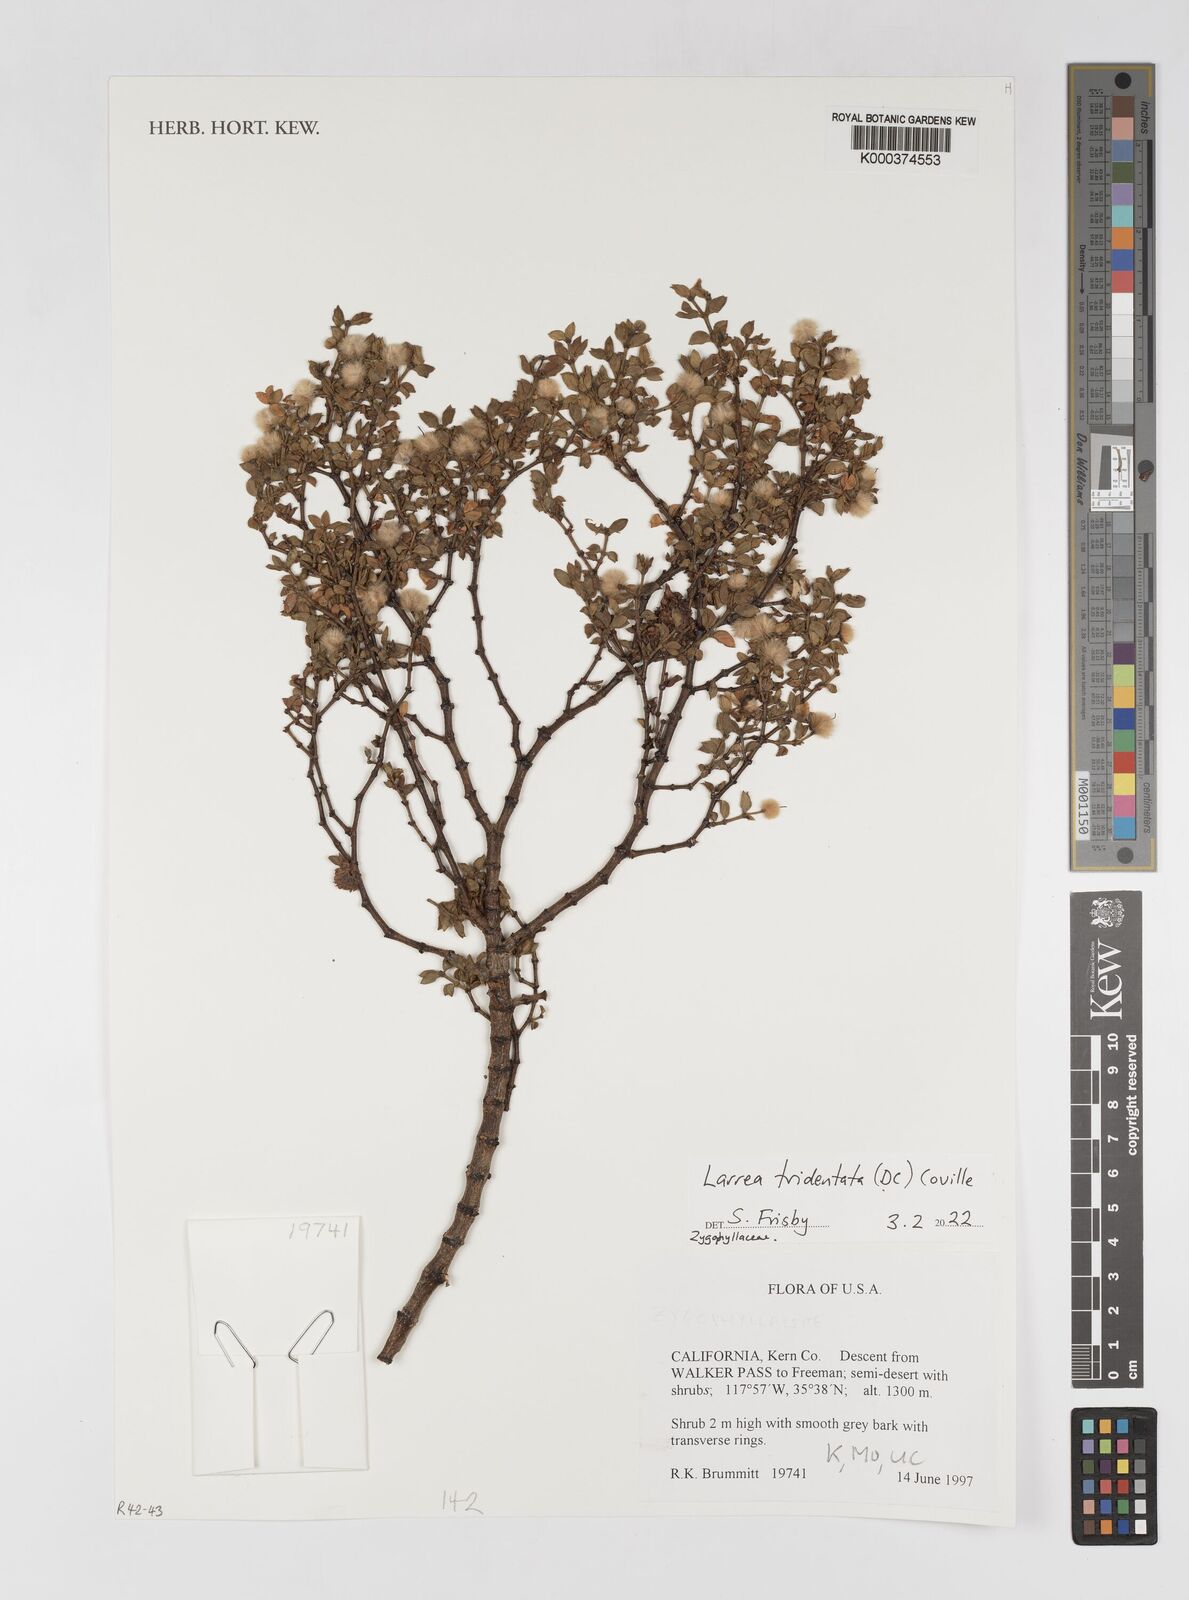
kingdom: Plantae
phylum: Tracheophyta
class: Magnoliopsida
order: Zygophyllales
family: Zygophyllaceae
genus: Larrea
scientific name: Larrea tridentata
